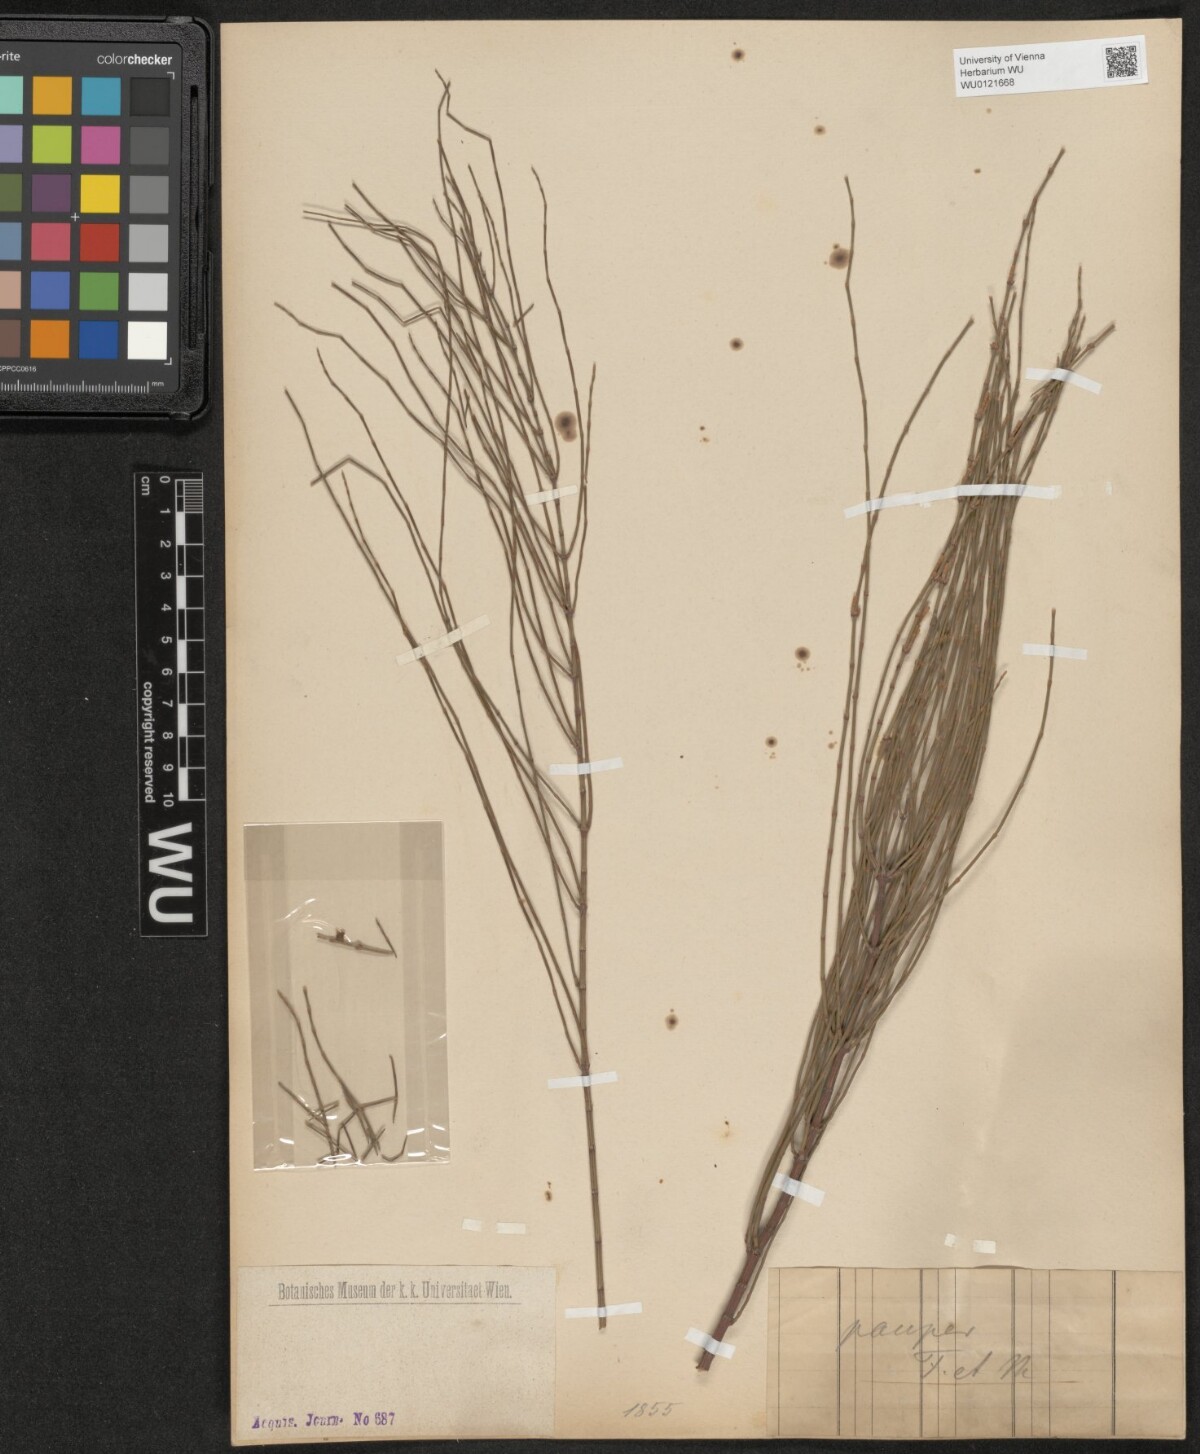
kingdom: Plantae
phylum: Tracheophyta
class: Magnoliopsida
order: Fagales
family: Casuarinaceae
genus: Casuarina
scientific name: Casuarina pauper
